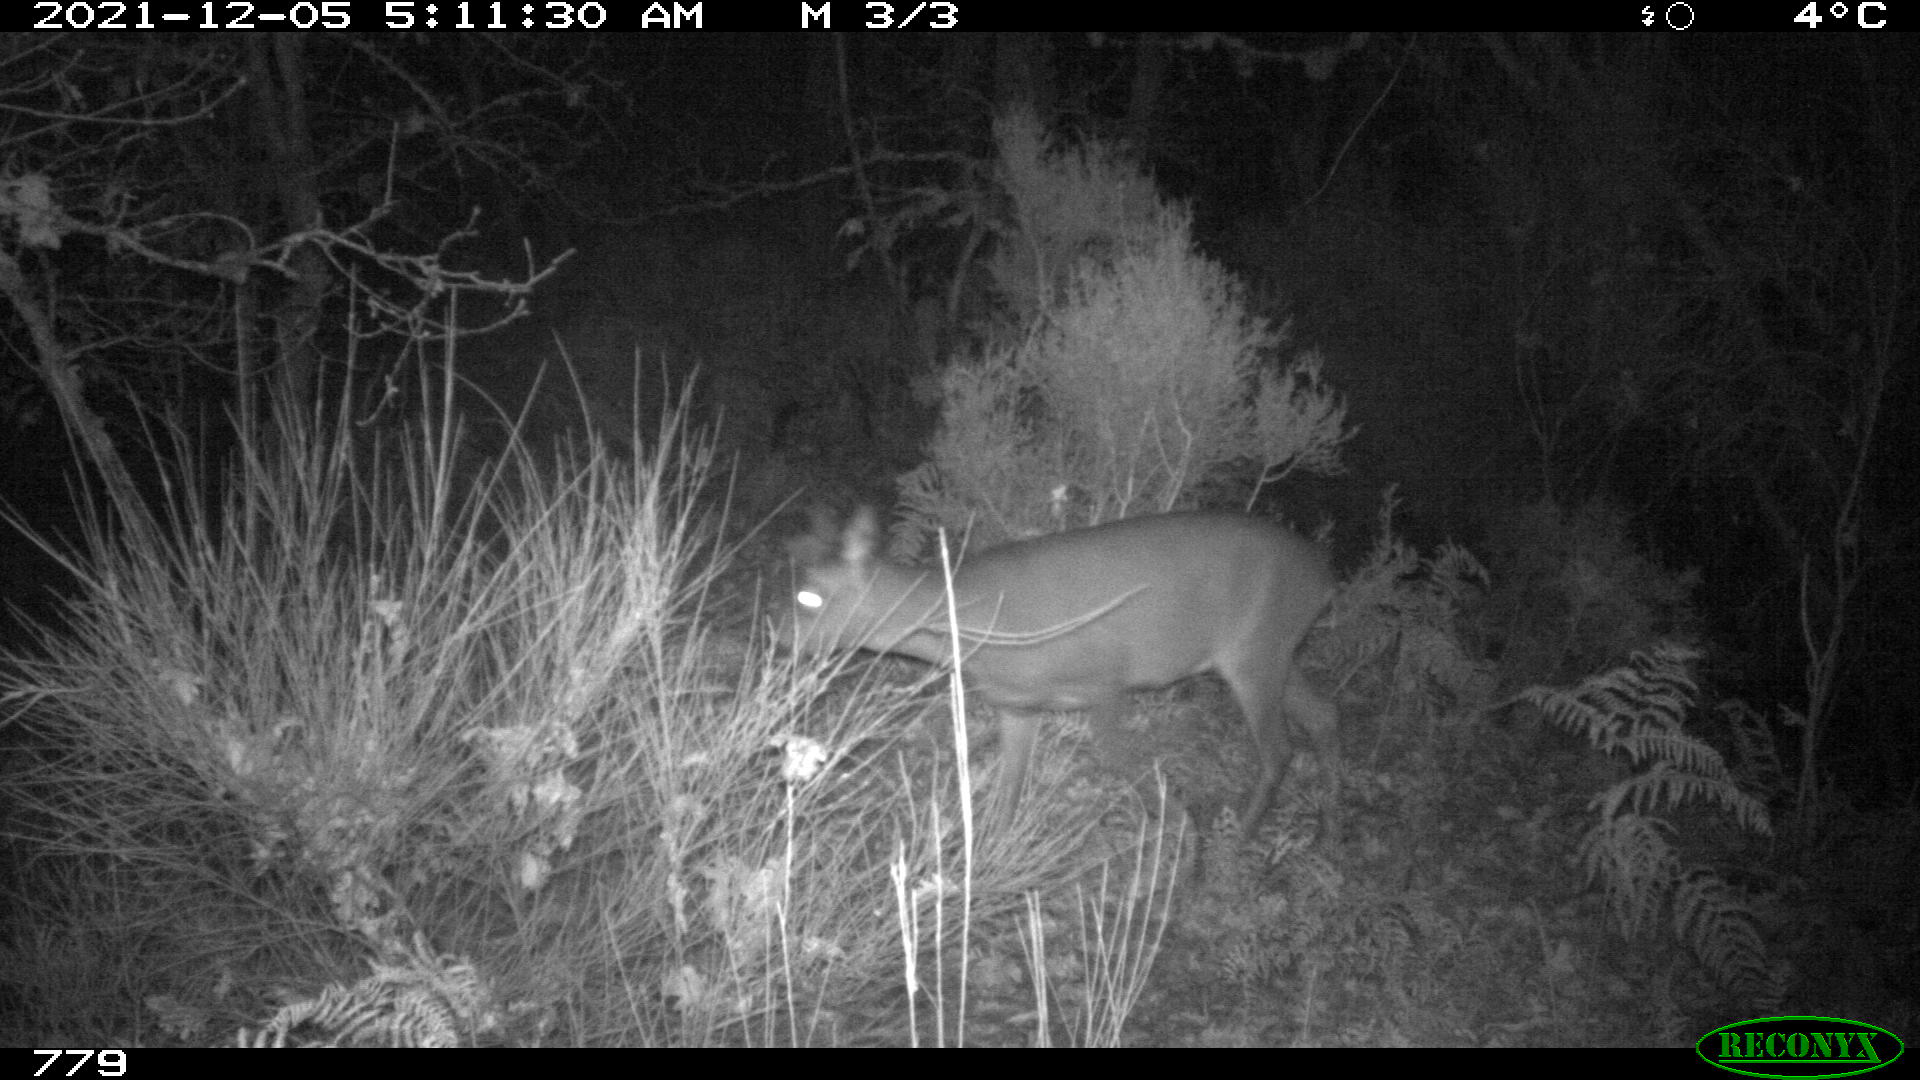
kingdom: Animalia
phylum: Chordata
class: Mammalia
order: Artiodactyla
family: Cervidae
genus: Capreolus
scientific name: Capreolus capreolus
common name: Western roe deer
